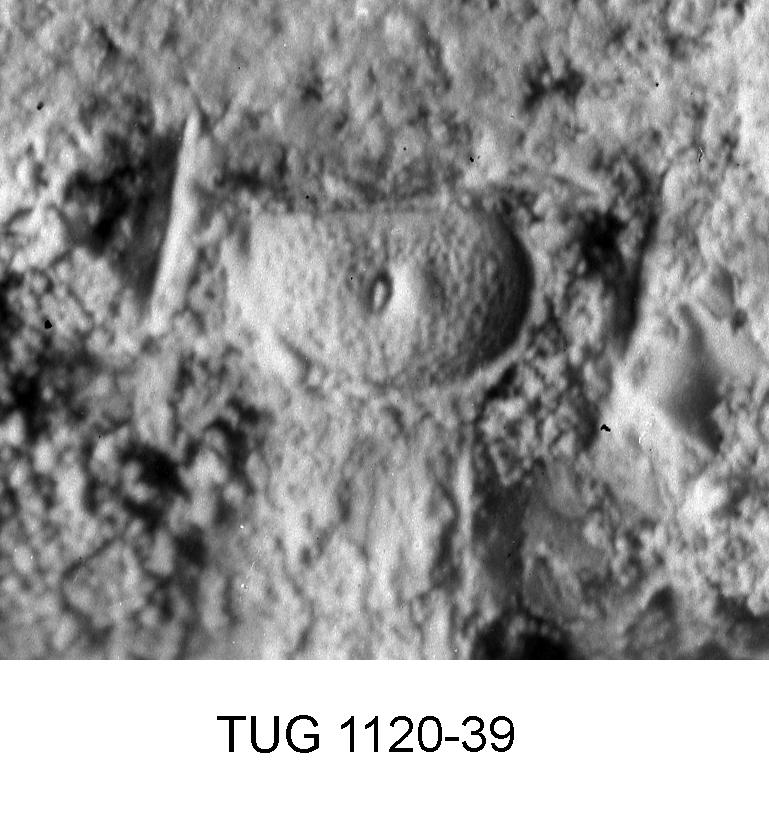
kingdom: Animalia
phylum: Arthropoda
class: Ostracoda
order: Palaeocopida
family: Euprimitiidae
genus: Laccoprimitia
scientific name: Laccoprimitia
